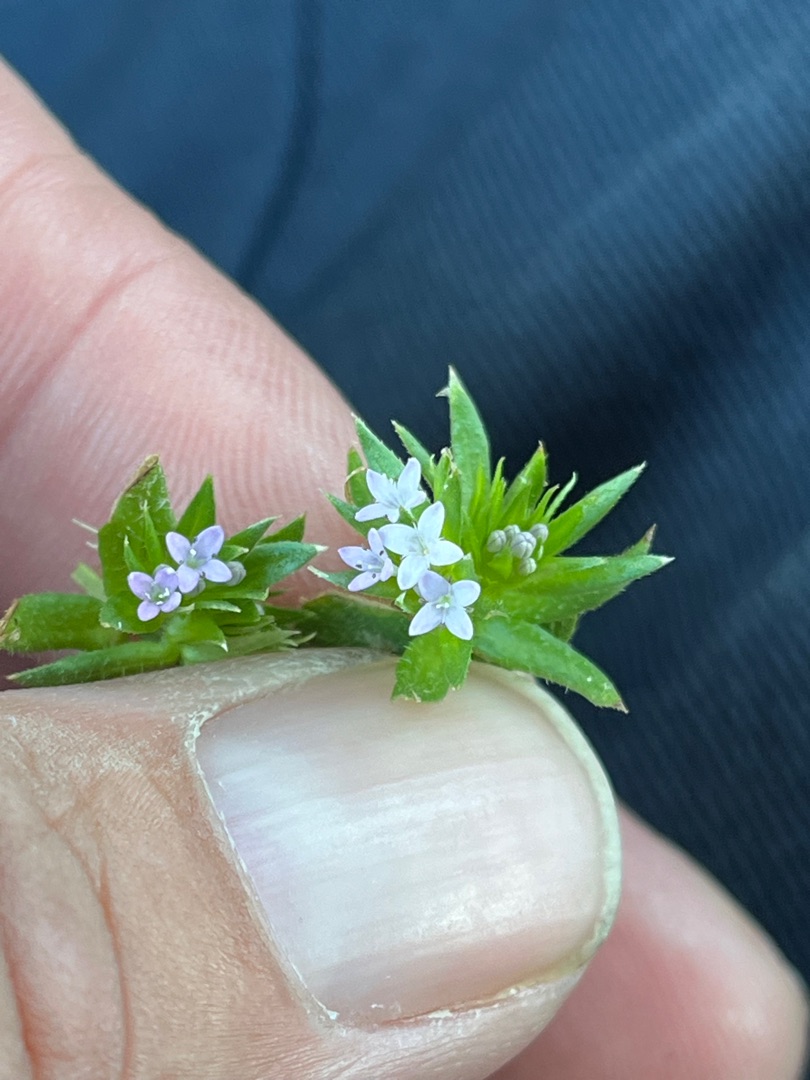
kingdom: Plantae
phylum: Tracheophyta
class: Magnoliopsida
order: Gentianales
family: Rubiaceae
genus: Sherardia
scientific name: Sherardia arvensis
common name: Blåstjerne
